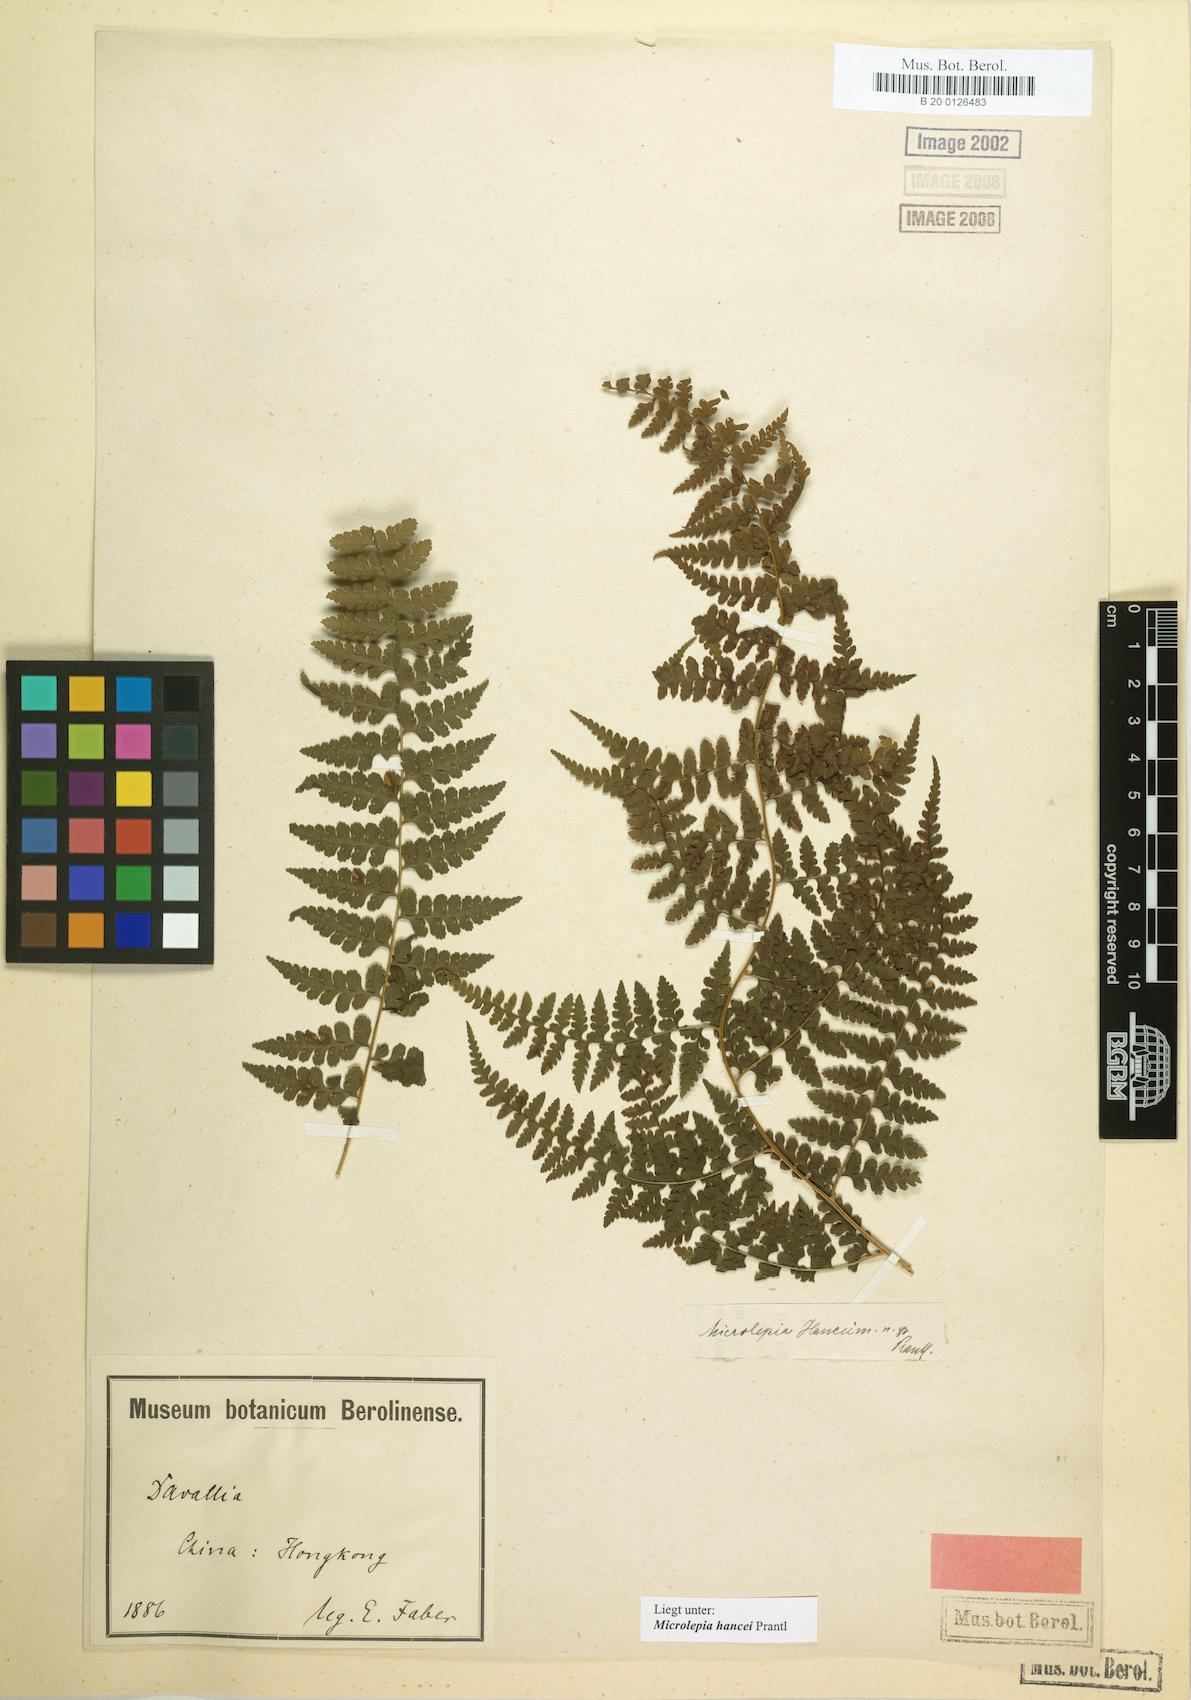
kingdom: Plantae
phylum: Tracheophyta
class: Polypodiopsida
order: Polypodiales
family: Dennstaedtiaceae
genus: Microlepia
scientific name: Microlepia nepalensis
